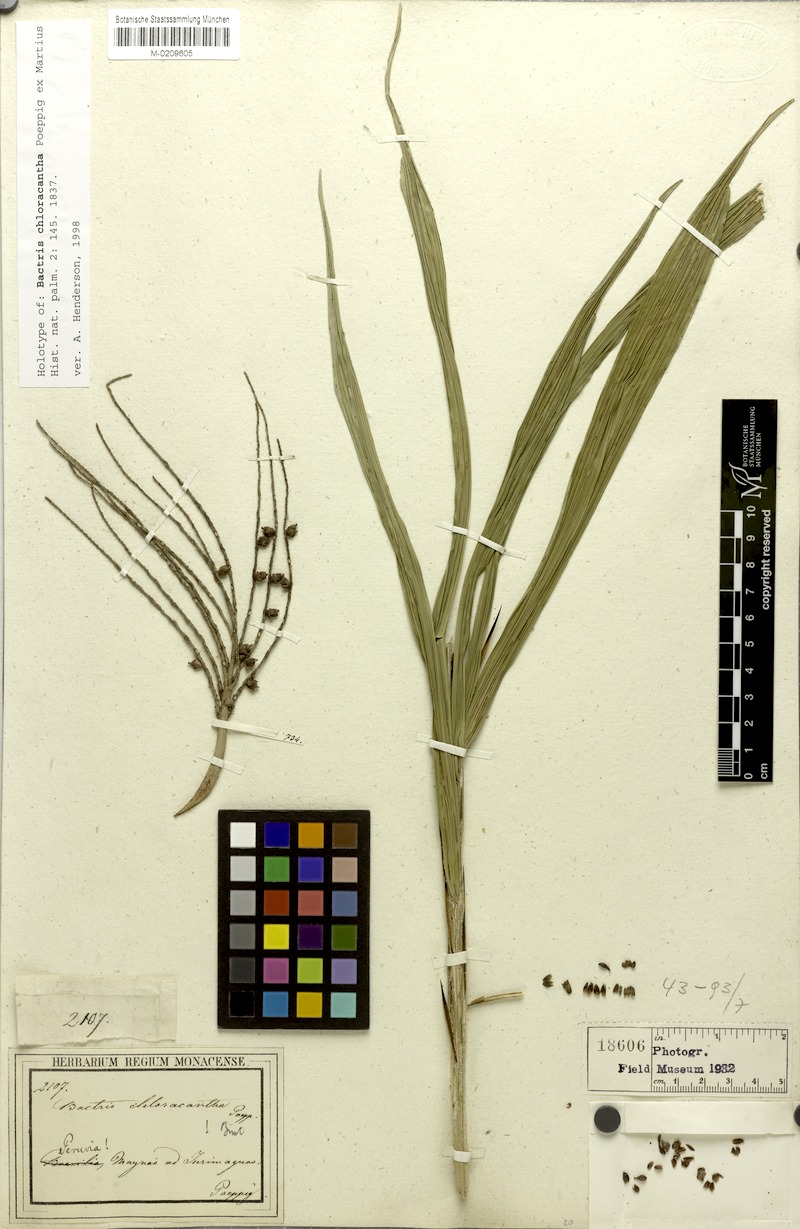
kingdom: Plantae
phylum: Tracheophyta
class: Liliopsida
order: Arecales
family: Arecaceae
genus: Bactris
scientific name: Bactris maraja
